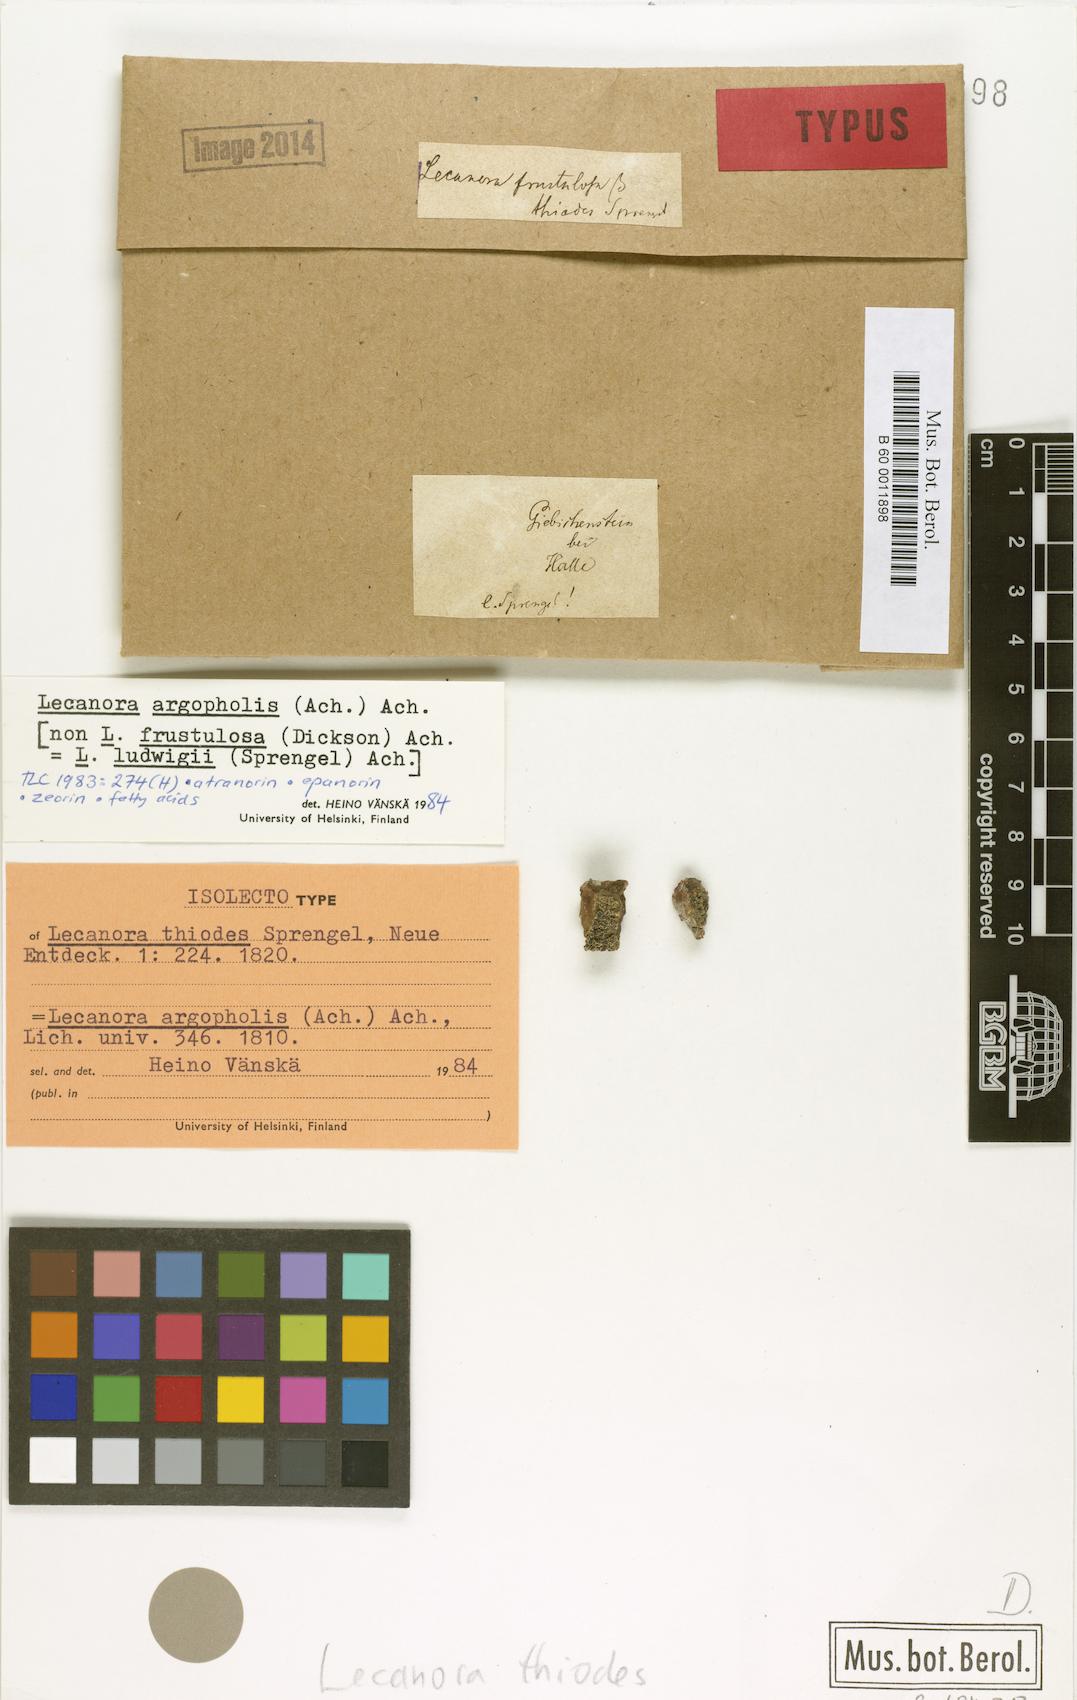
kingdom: Fungi
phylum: Ascomycota
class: Lecanoromycetes
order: Lecanorales
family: Lecanoraceae
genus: Lecanora
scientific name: Lecanora frustulosa
